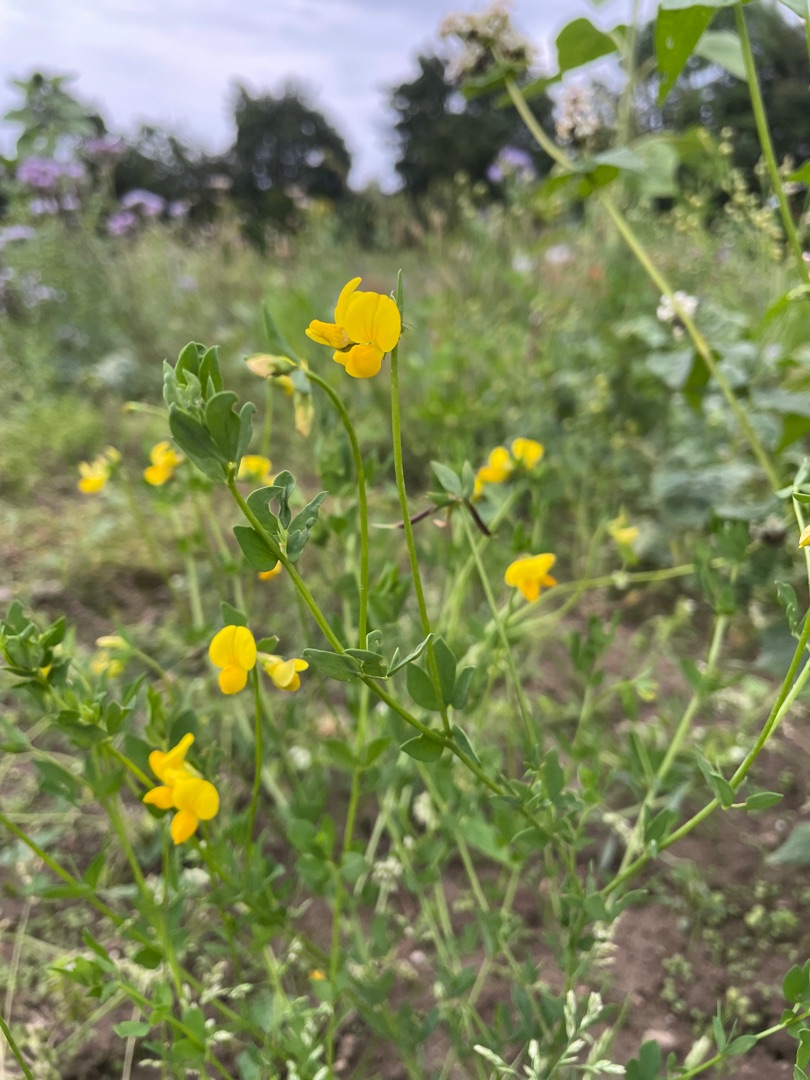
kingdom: Plantae
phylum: Tracheophyta
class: Magnoliopsida
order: Fabales
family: Fabaceae
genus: Lotus
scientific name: Lotus corniculatus
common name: Almindelig kællingetand
